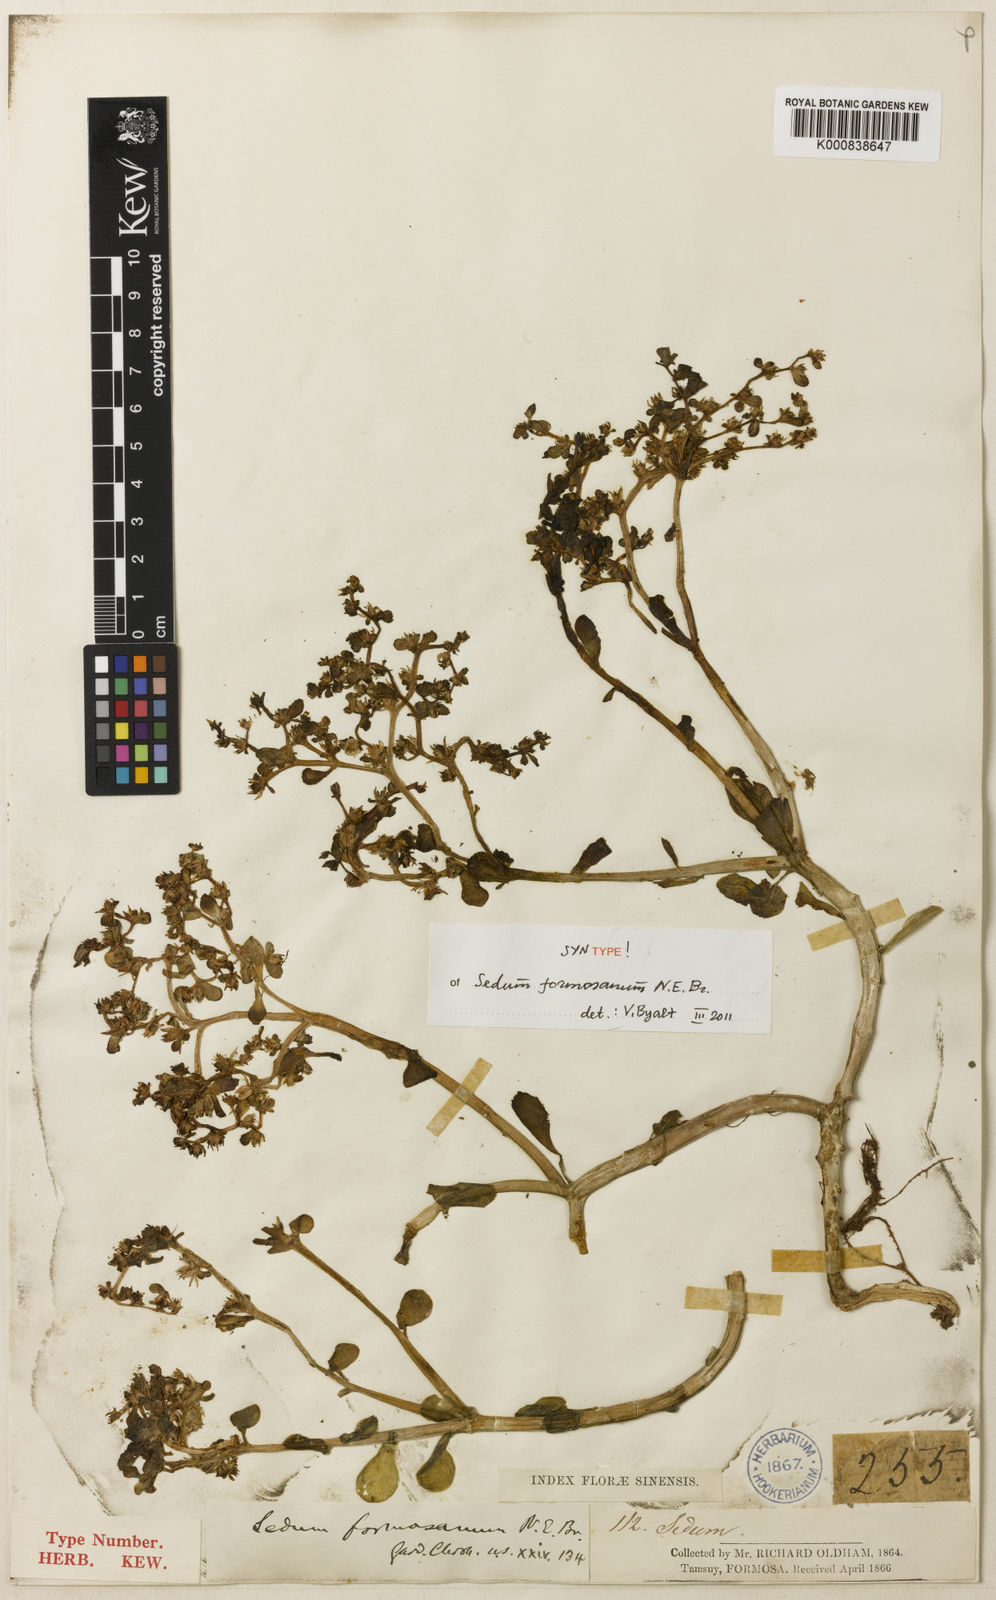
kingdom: Plantae
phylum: Tracheophyta
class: Magnoliopsida
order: Saxifragales
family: Crassulaceae
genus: Sedum
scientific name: Sedum formosanum
